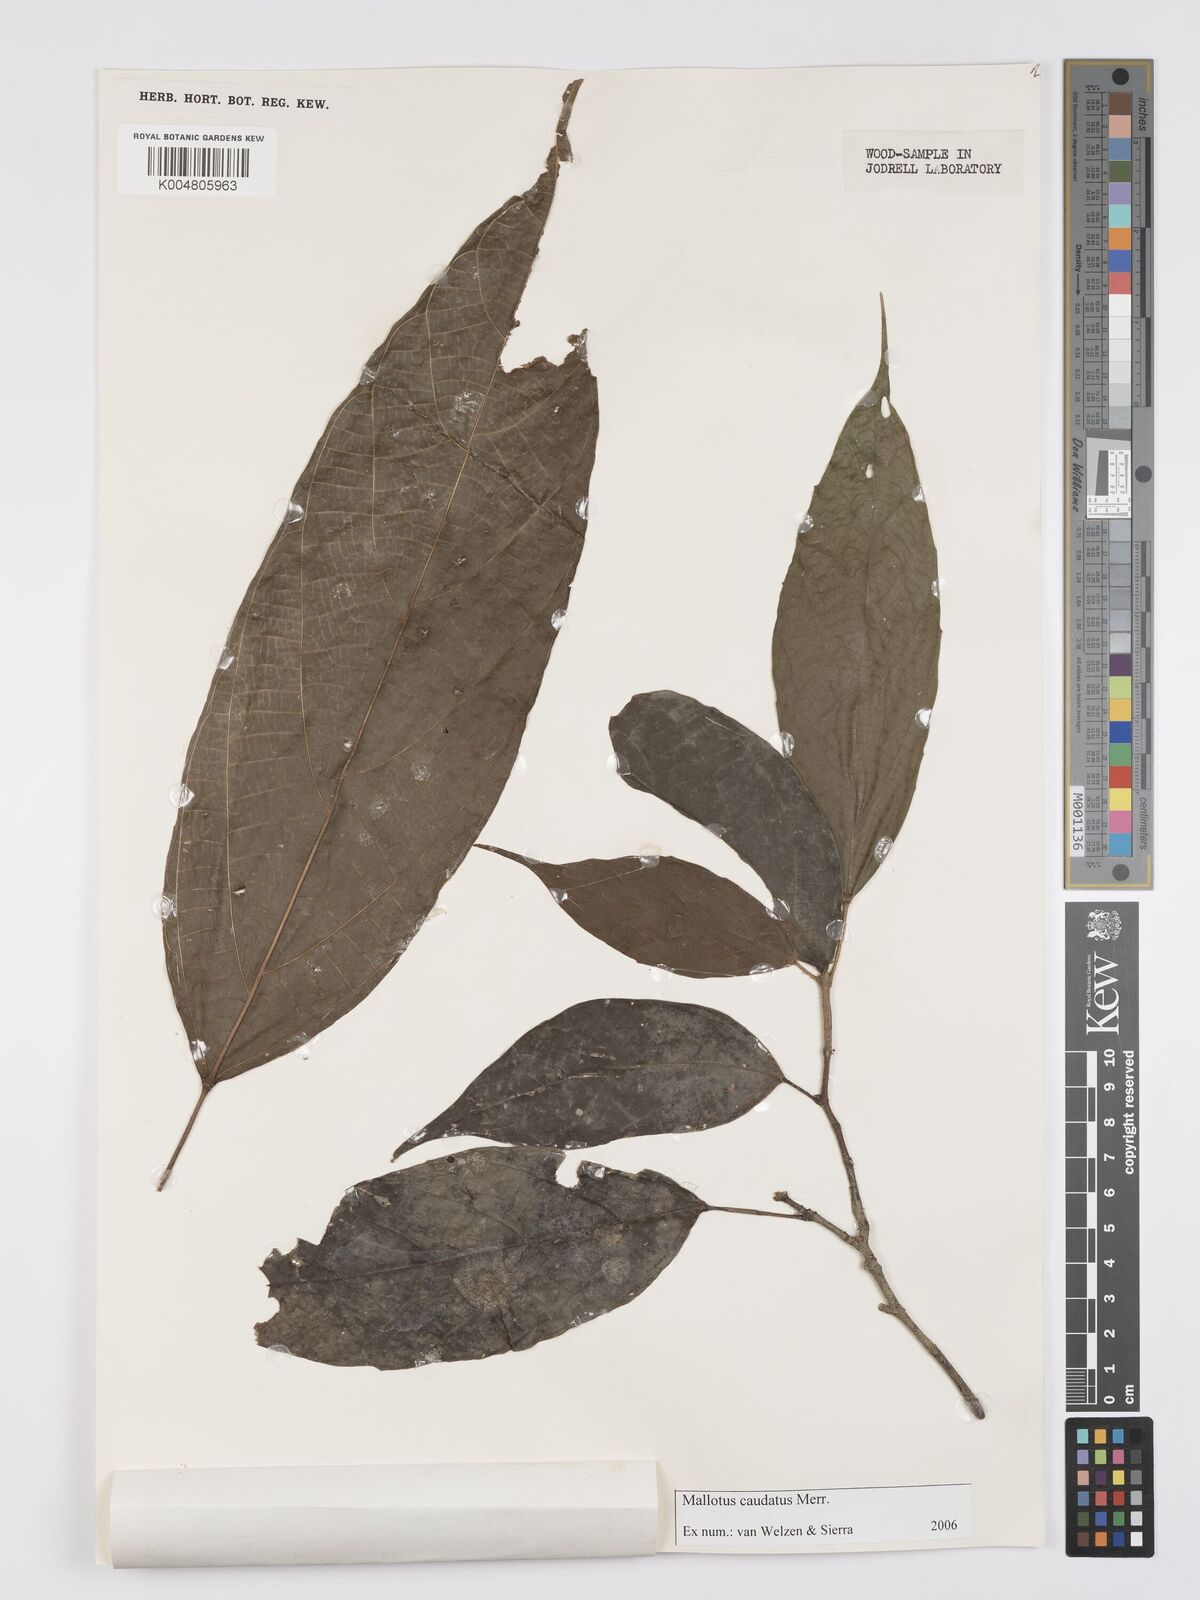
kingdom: Plantae
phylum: Tracheophyta
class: Magnoliopsida
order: Malpighiales
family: Euphorbiaceae
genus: Mallotus
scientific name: Mallotus caudatus
